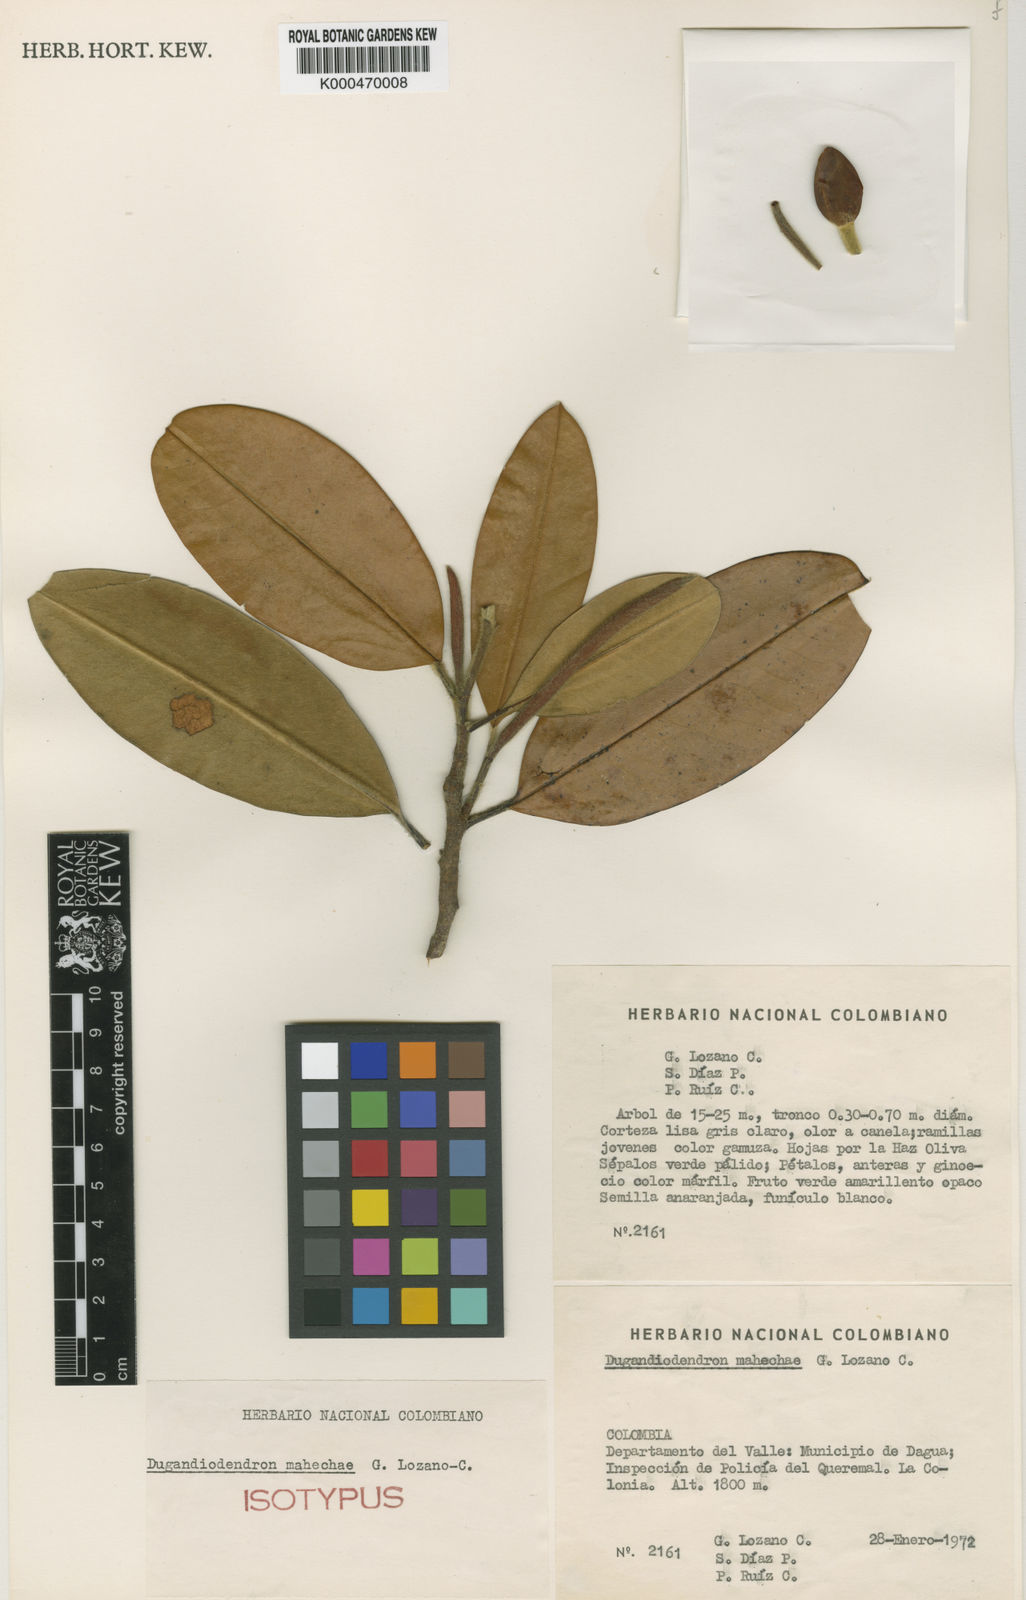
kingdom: Plantae
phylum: Tracheophyta
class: Magnoliopsida
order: Magnoliales
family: Magnoliaceae
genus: Magnolia
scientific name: Magnolia mahechae
